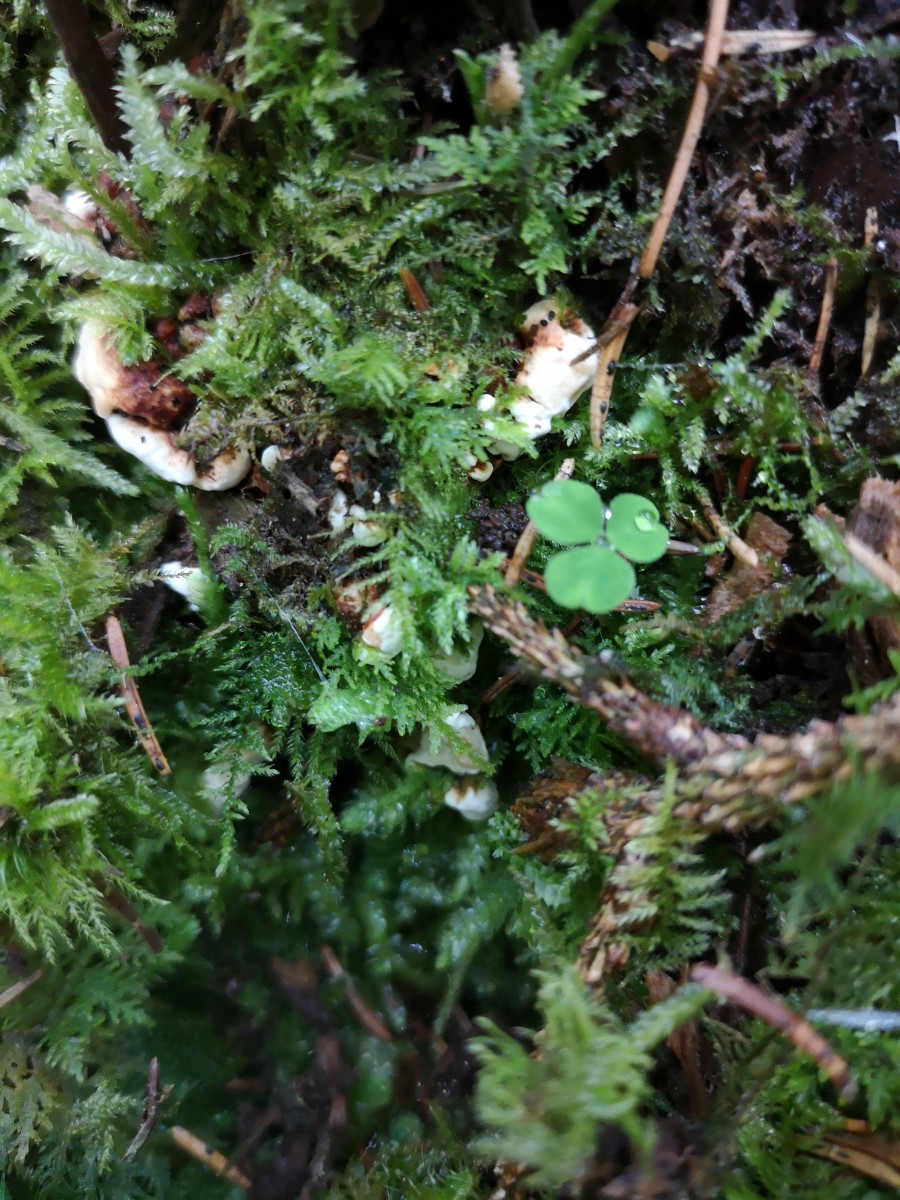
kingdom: Fungi
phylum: Basidiomycota
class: Agaricomycetes
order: Russulales
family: Bondarzewiaceae
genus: Heterobasidion
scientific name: Heterobasidion annosum
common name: almindelig rodfordærver
